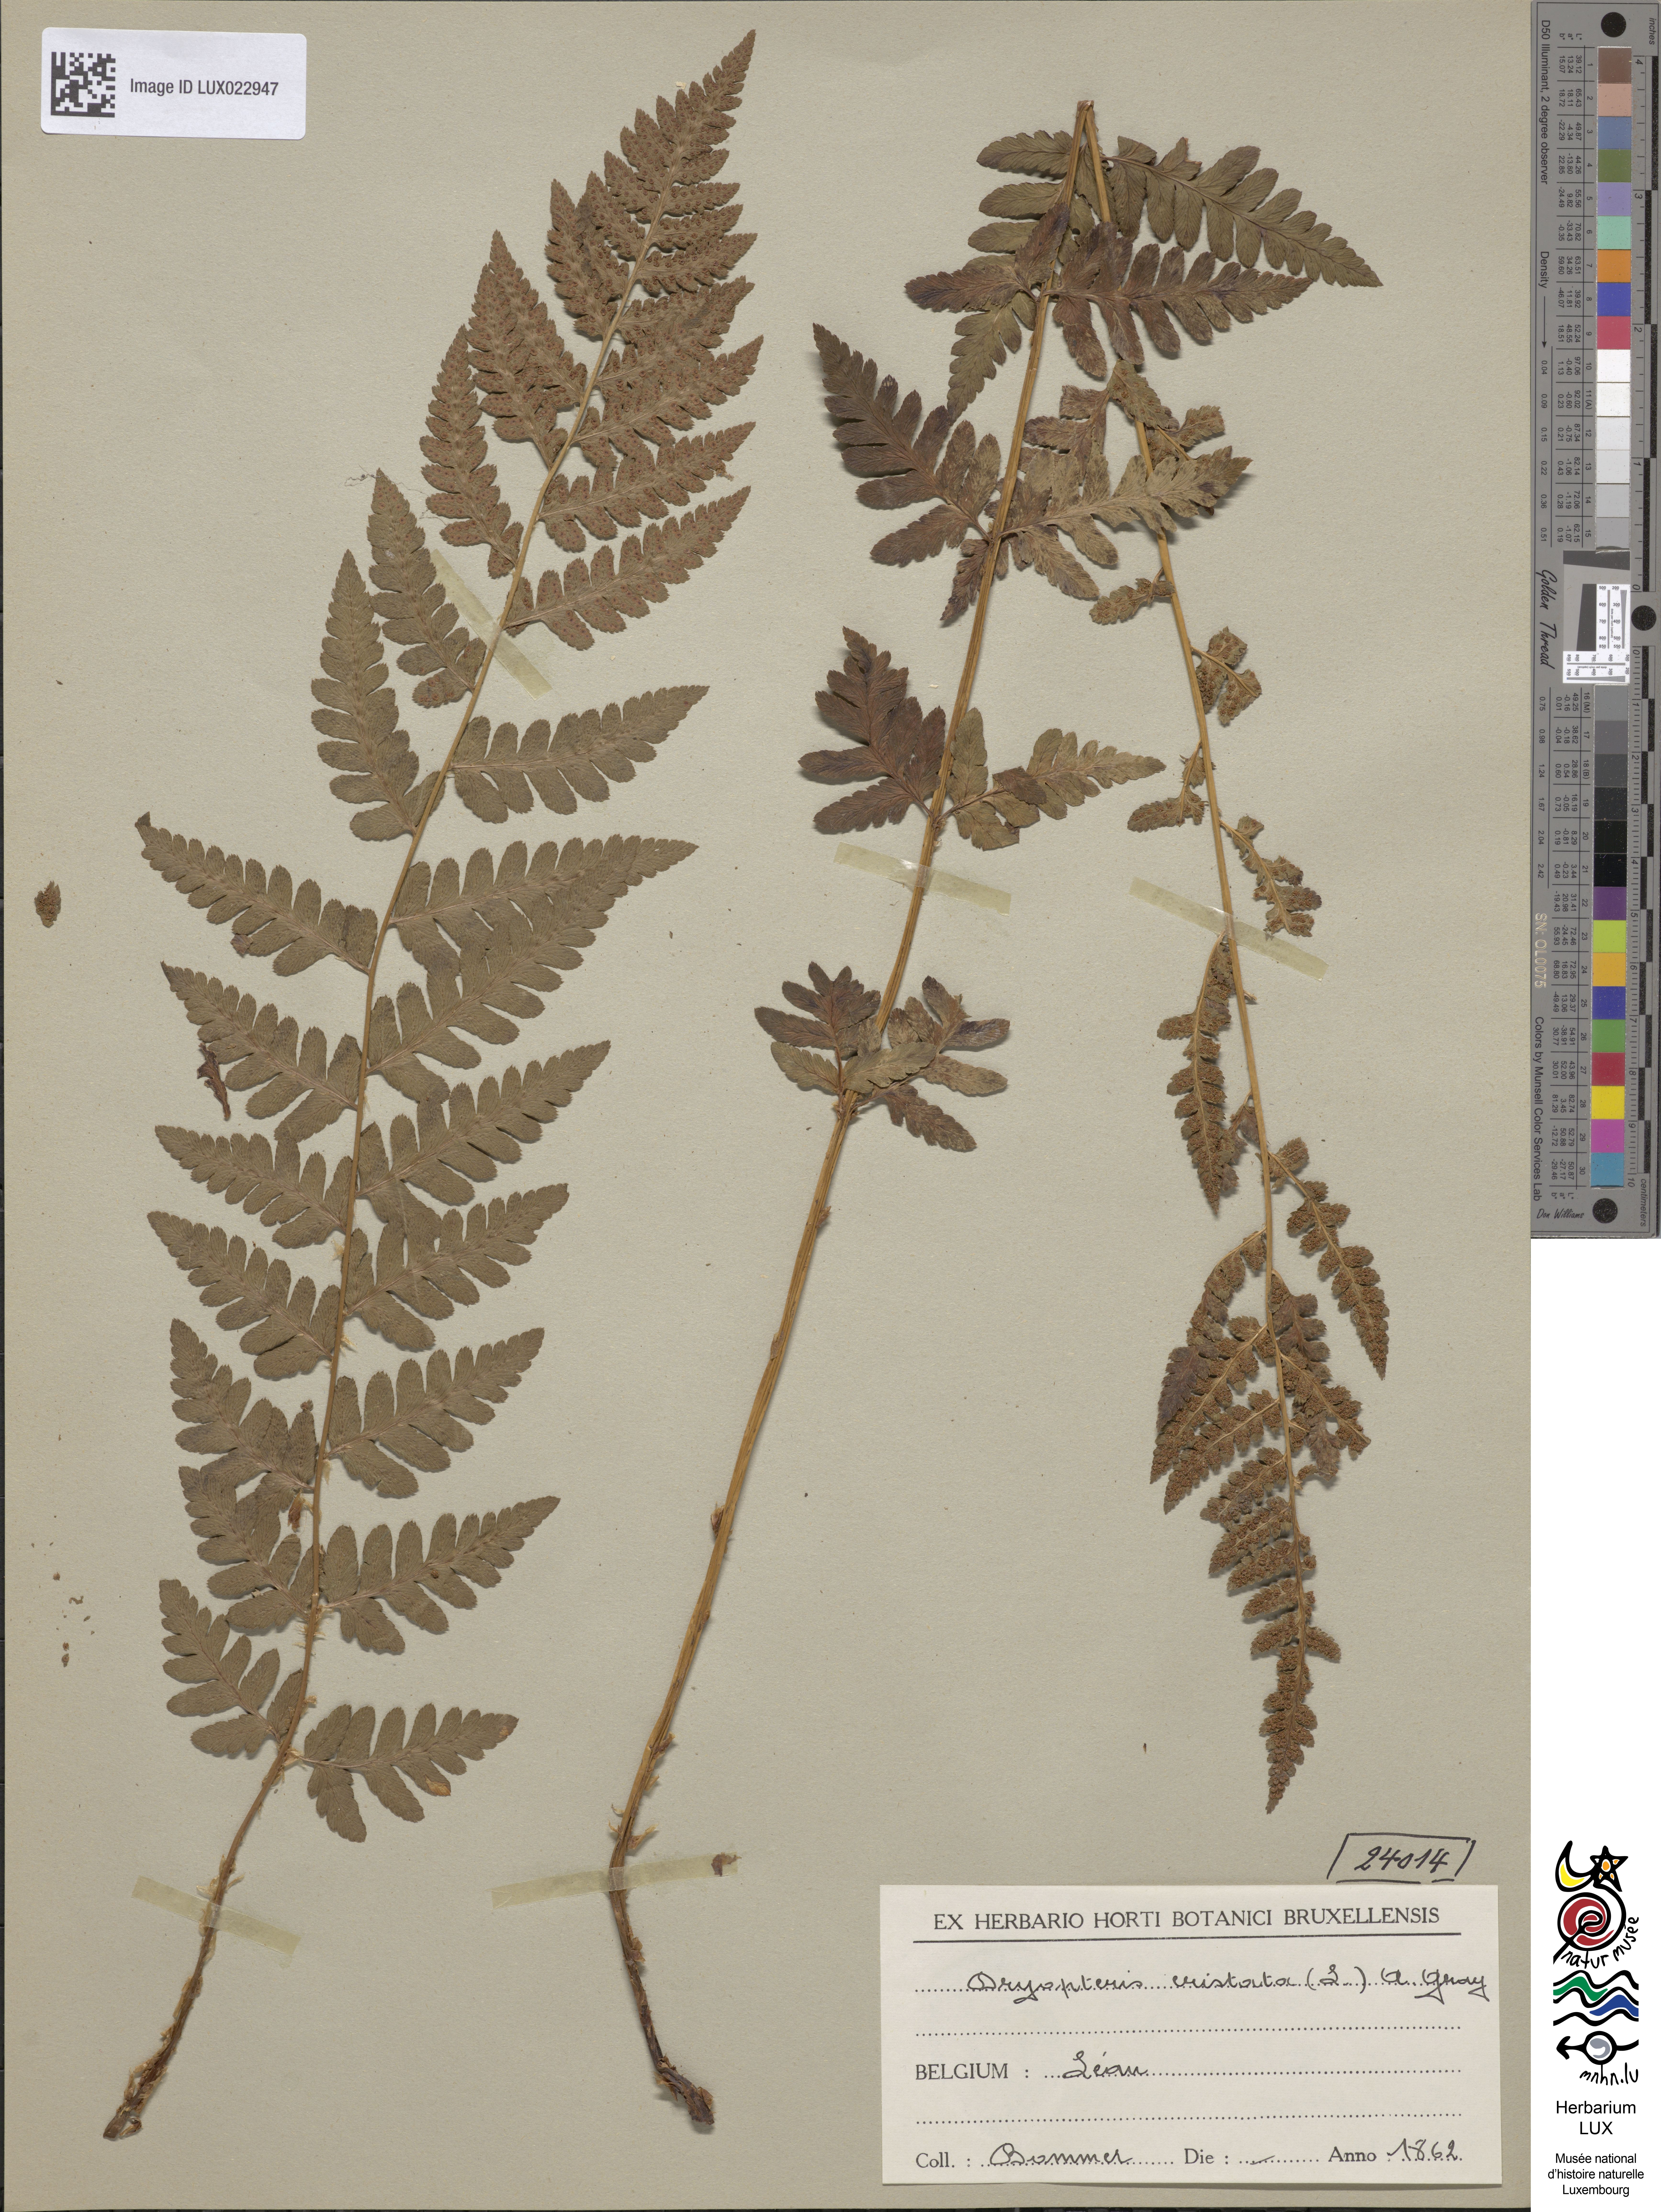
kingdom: Plantae
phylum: Tracheophyta
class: Polypodiopsida
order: Polypodiales
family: Dryopteridaceae
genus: Dryopteris
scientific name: Dryopteris cristata
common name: Crested wood fern
